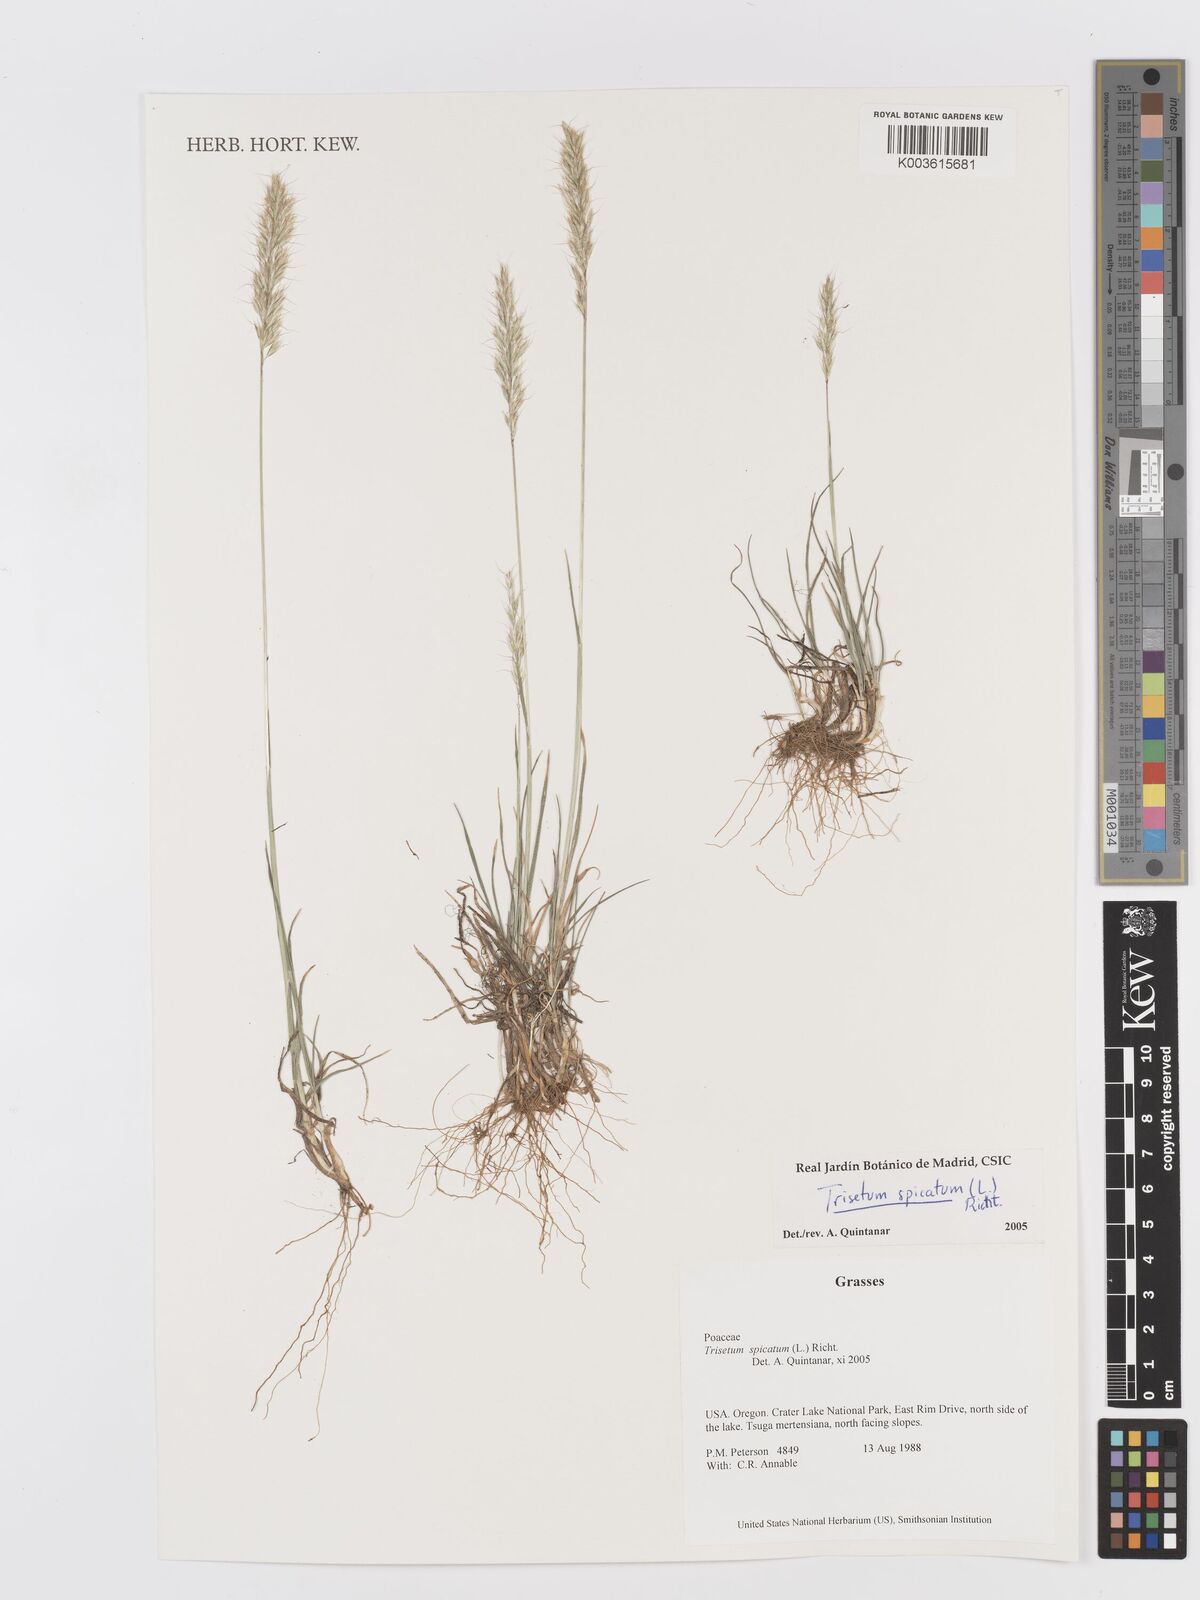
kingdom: Plantae
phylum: Tracheophyta
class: Liliopsida
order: Poales
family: Poaceae
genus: Koeleria
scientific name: Koeleria spicata
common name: Mountain trisetum
